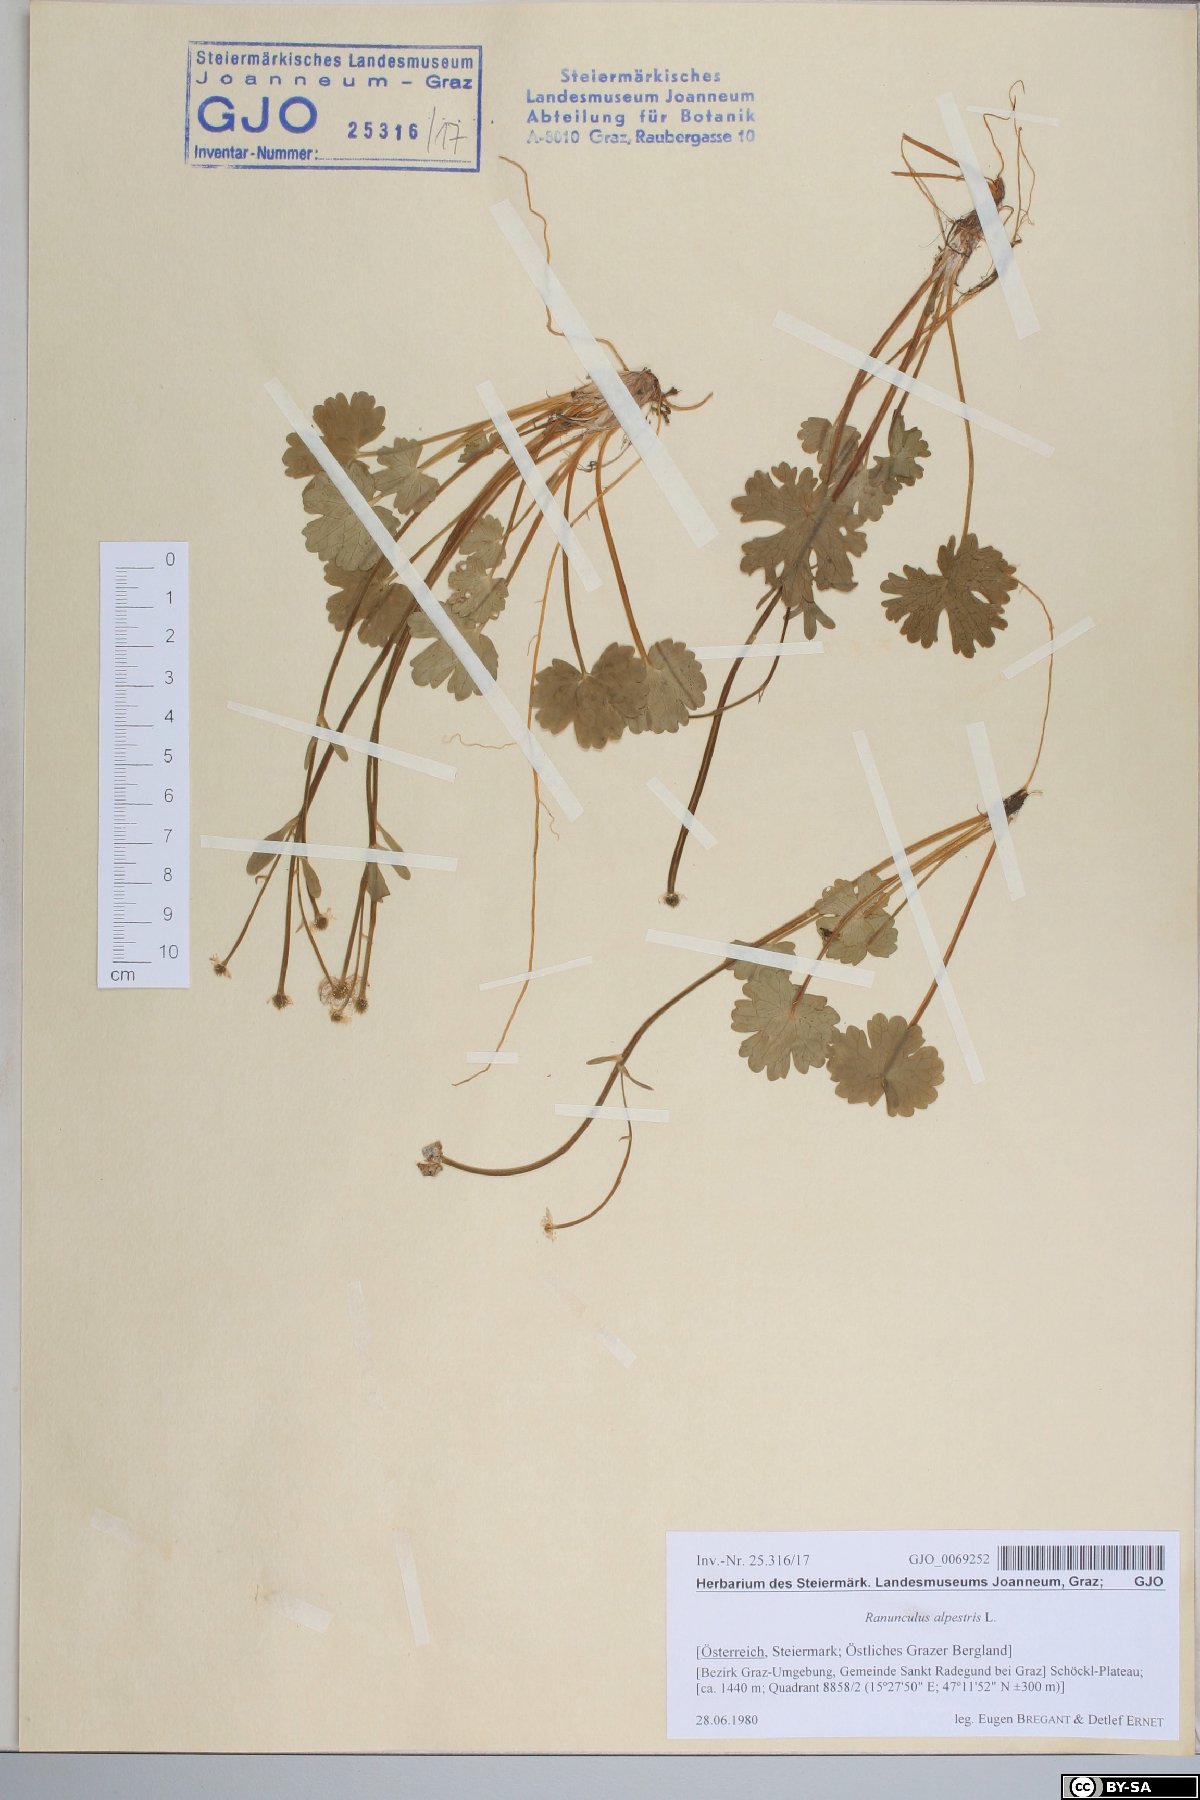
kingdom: Plantae
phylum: Tracheophyta
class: Magnoliopsida
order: Ranunculales
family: Ranunculaceae
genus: Ranunculus
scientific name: Ranunculus alpestris
